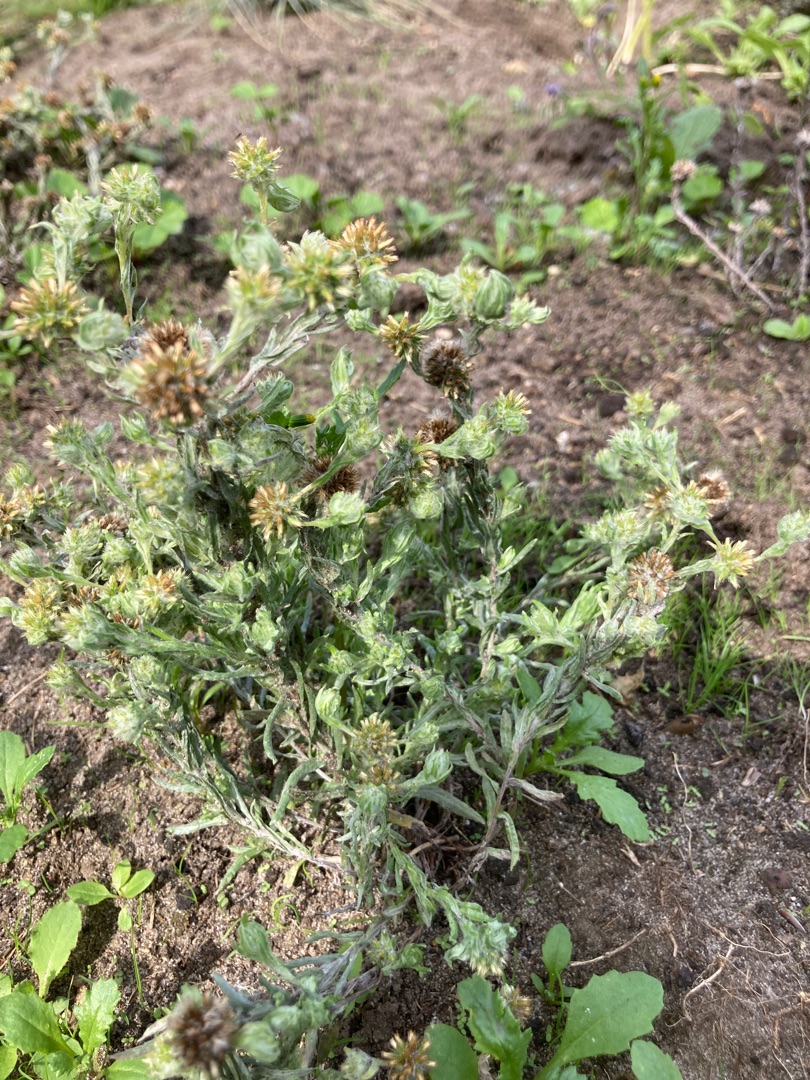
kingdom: Plantae
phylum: Tracheophyta
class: Magnoliopsida
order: Asterales
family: Asteraceae
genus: Filago
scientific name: Filago germanica
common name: Kugle-museurt
